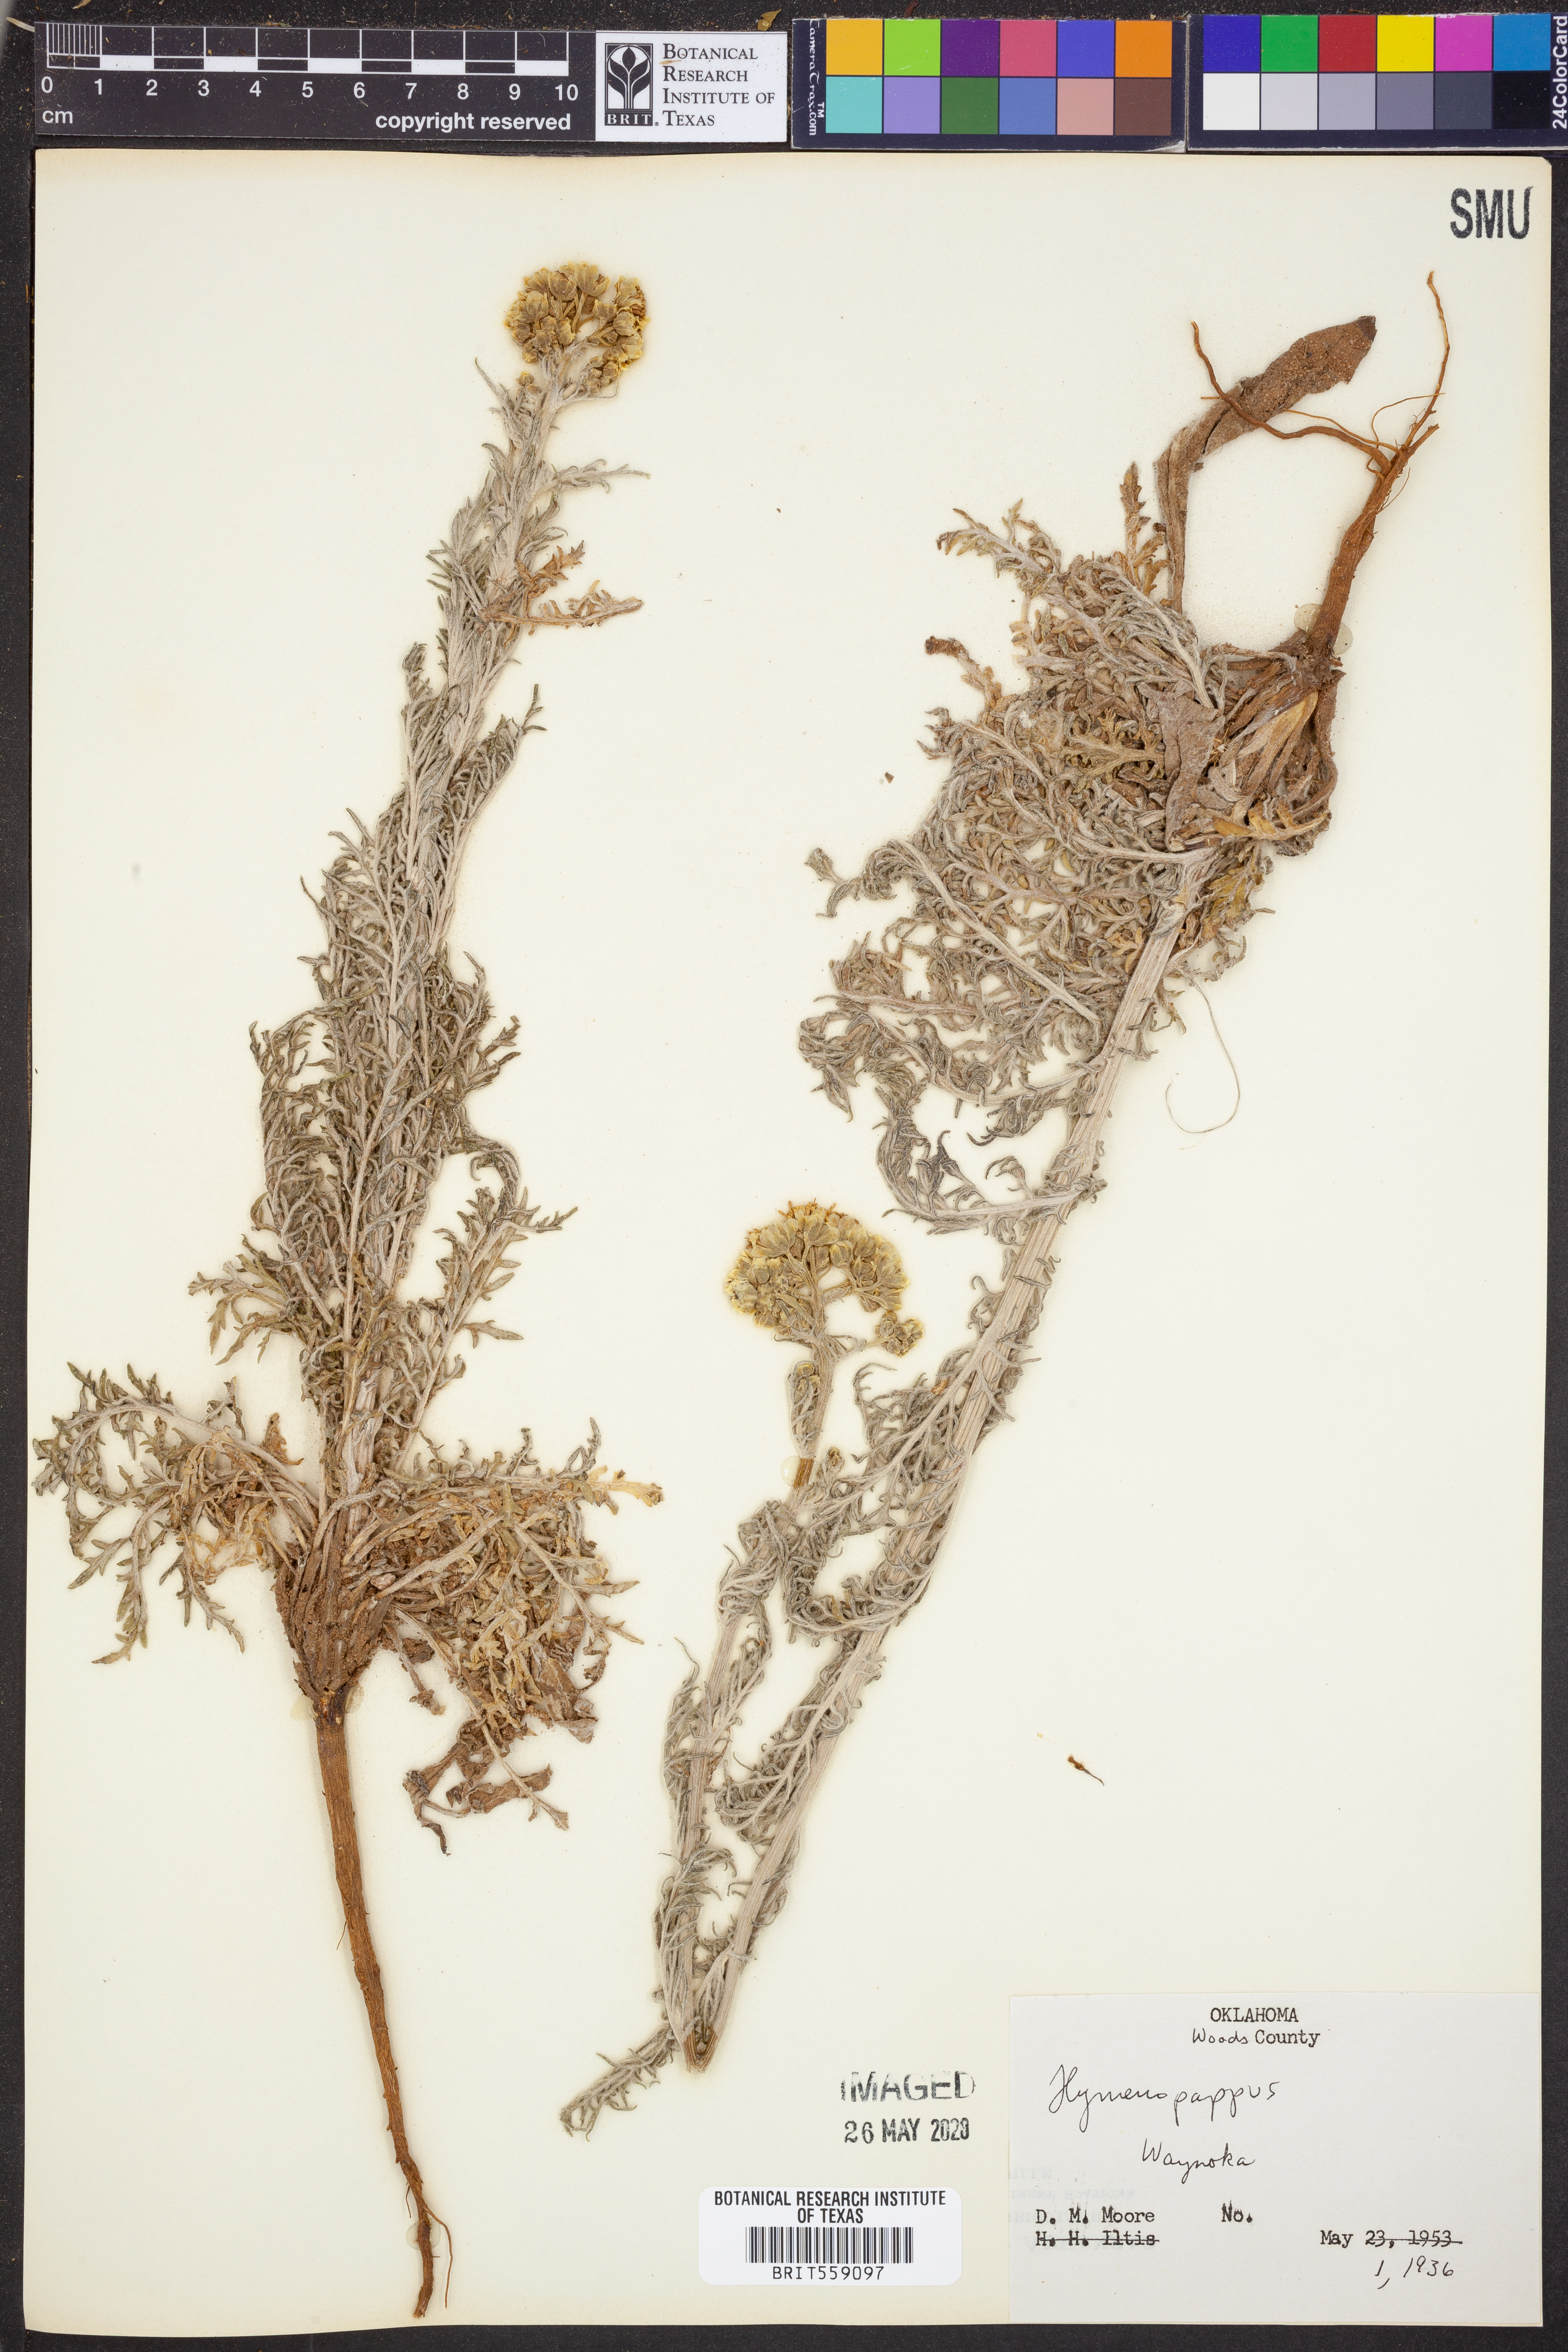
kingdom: Plantae
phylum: Tracheophyta
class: Magnoliopsida
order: Asterales
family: Asteraceae
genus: Hymenopappus
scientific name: Hymenopappus
